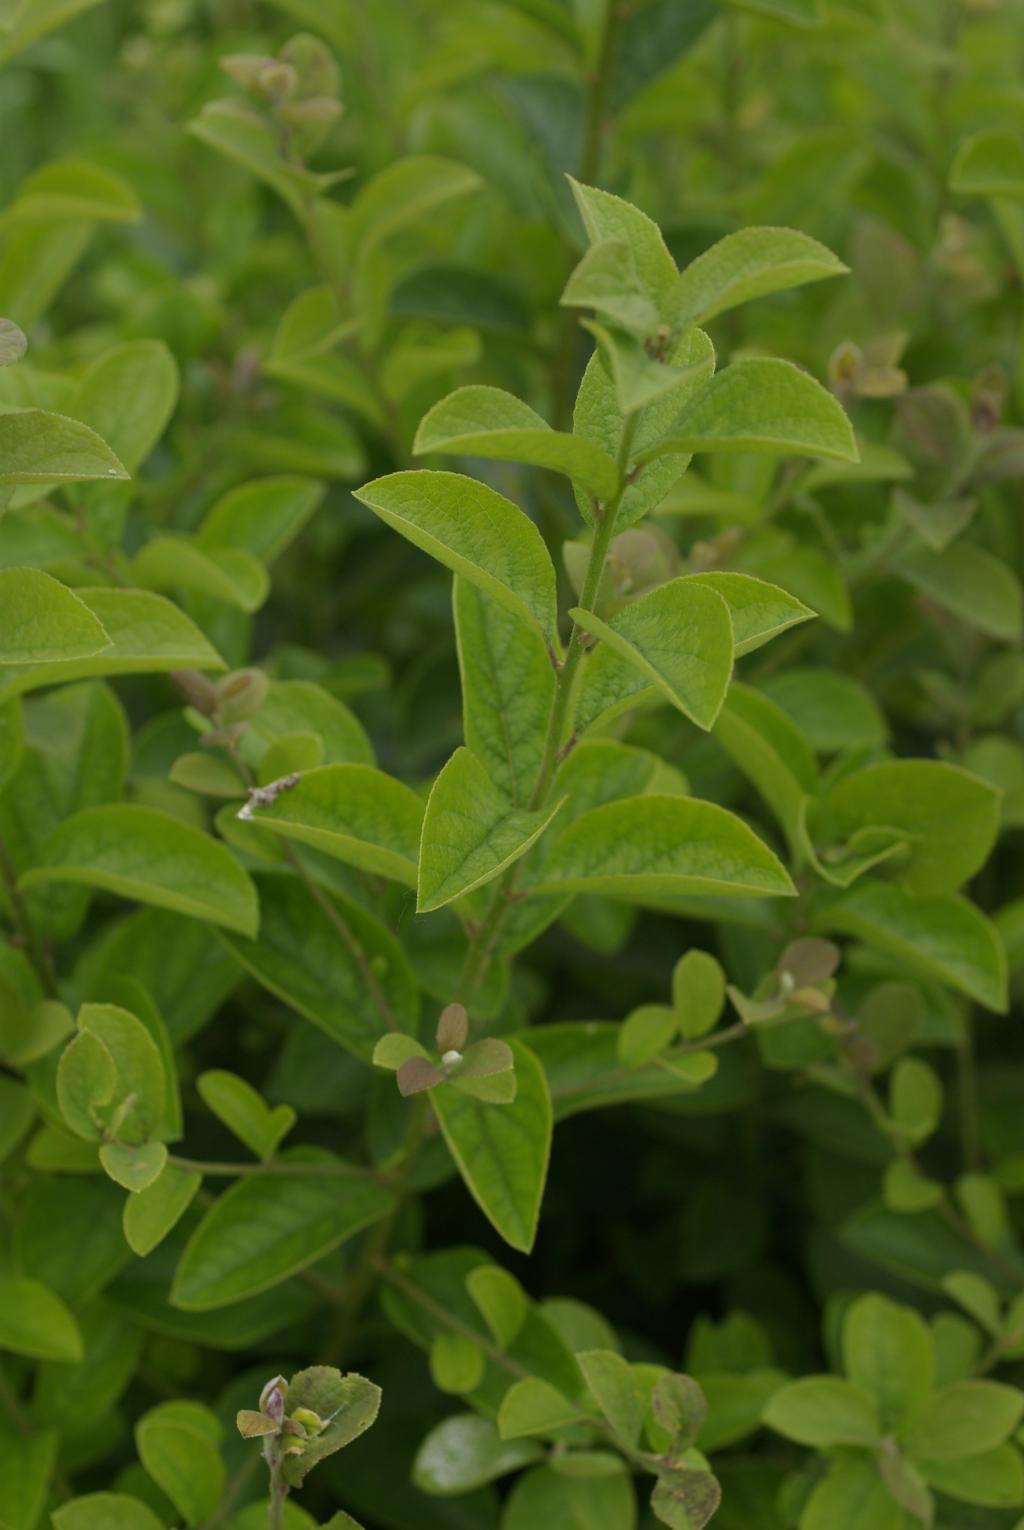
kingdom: Plantae
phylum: Tracheophyta
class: Magnoliopsida
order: Ericales
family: Symplocaceae
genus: Symplocos
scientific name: Symplocos paniculata
